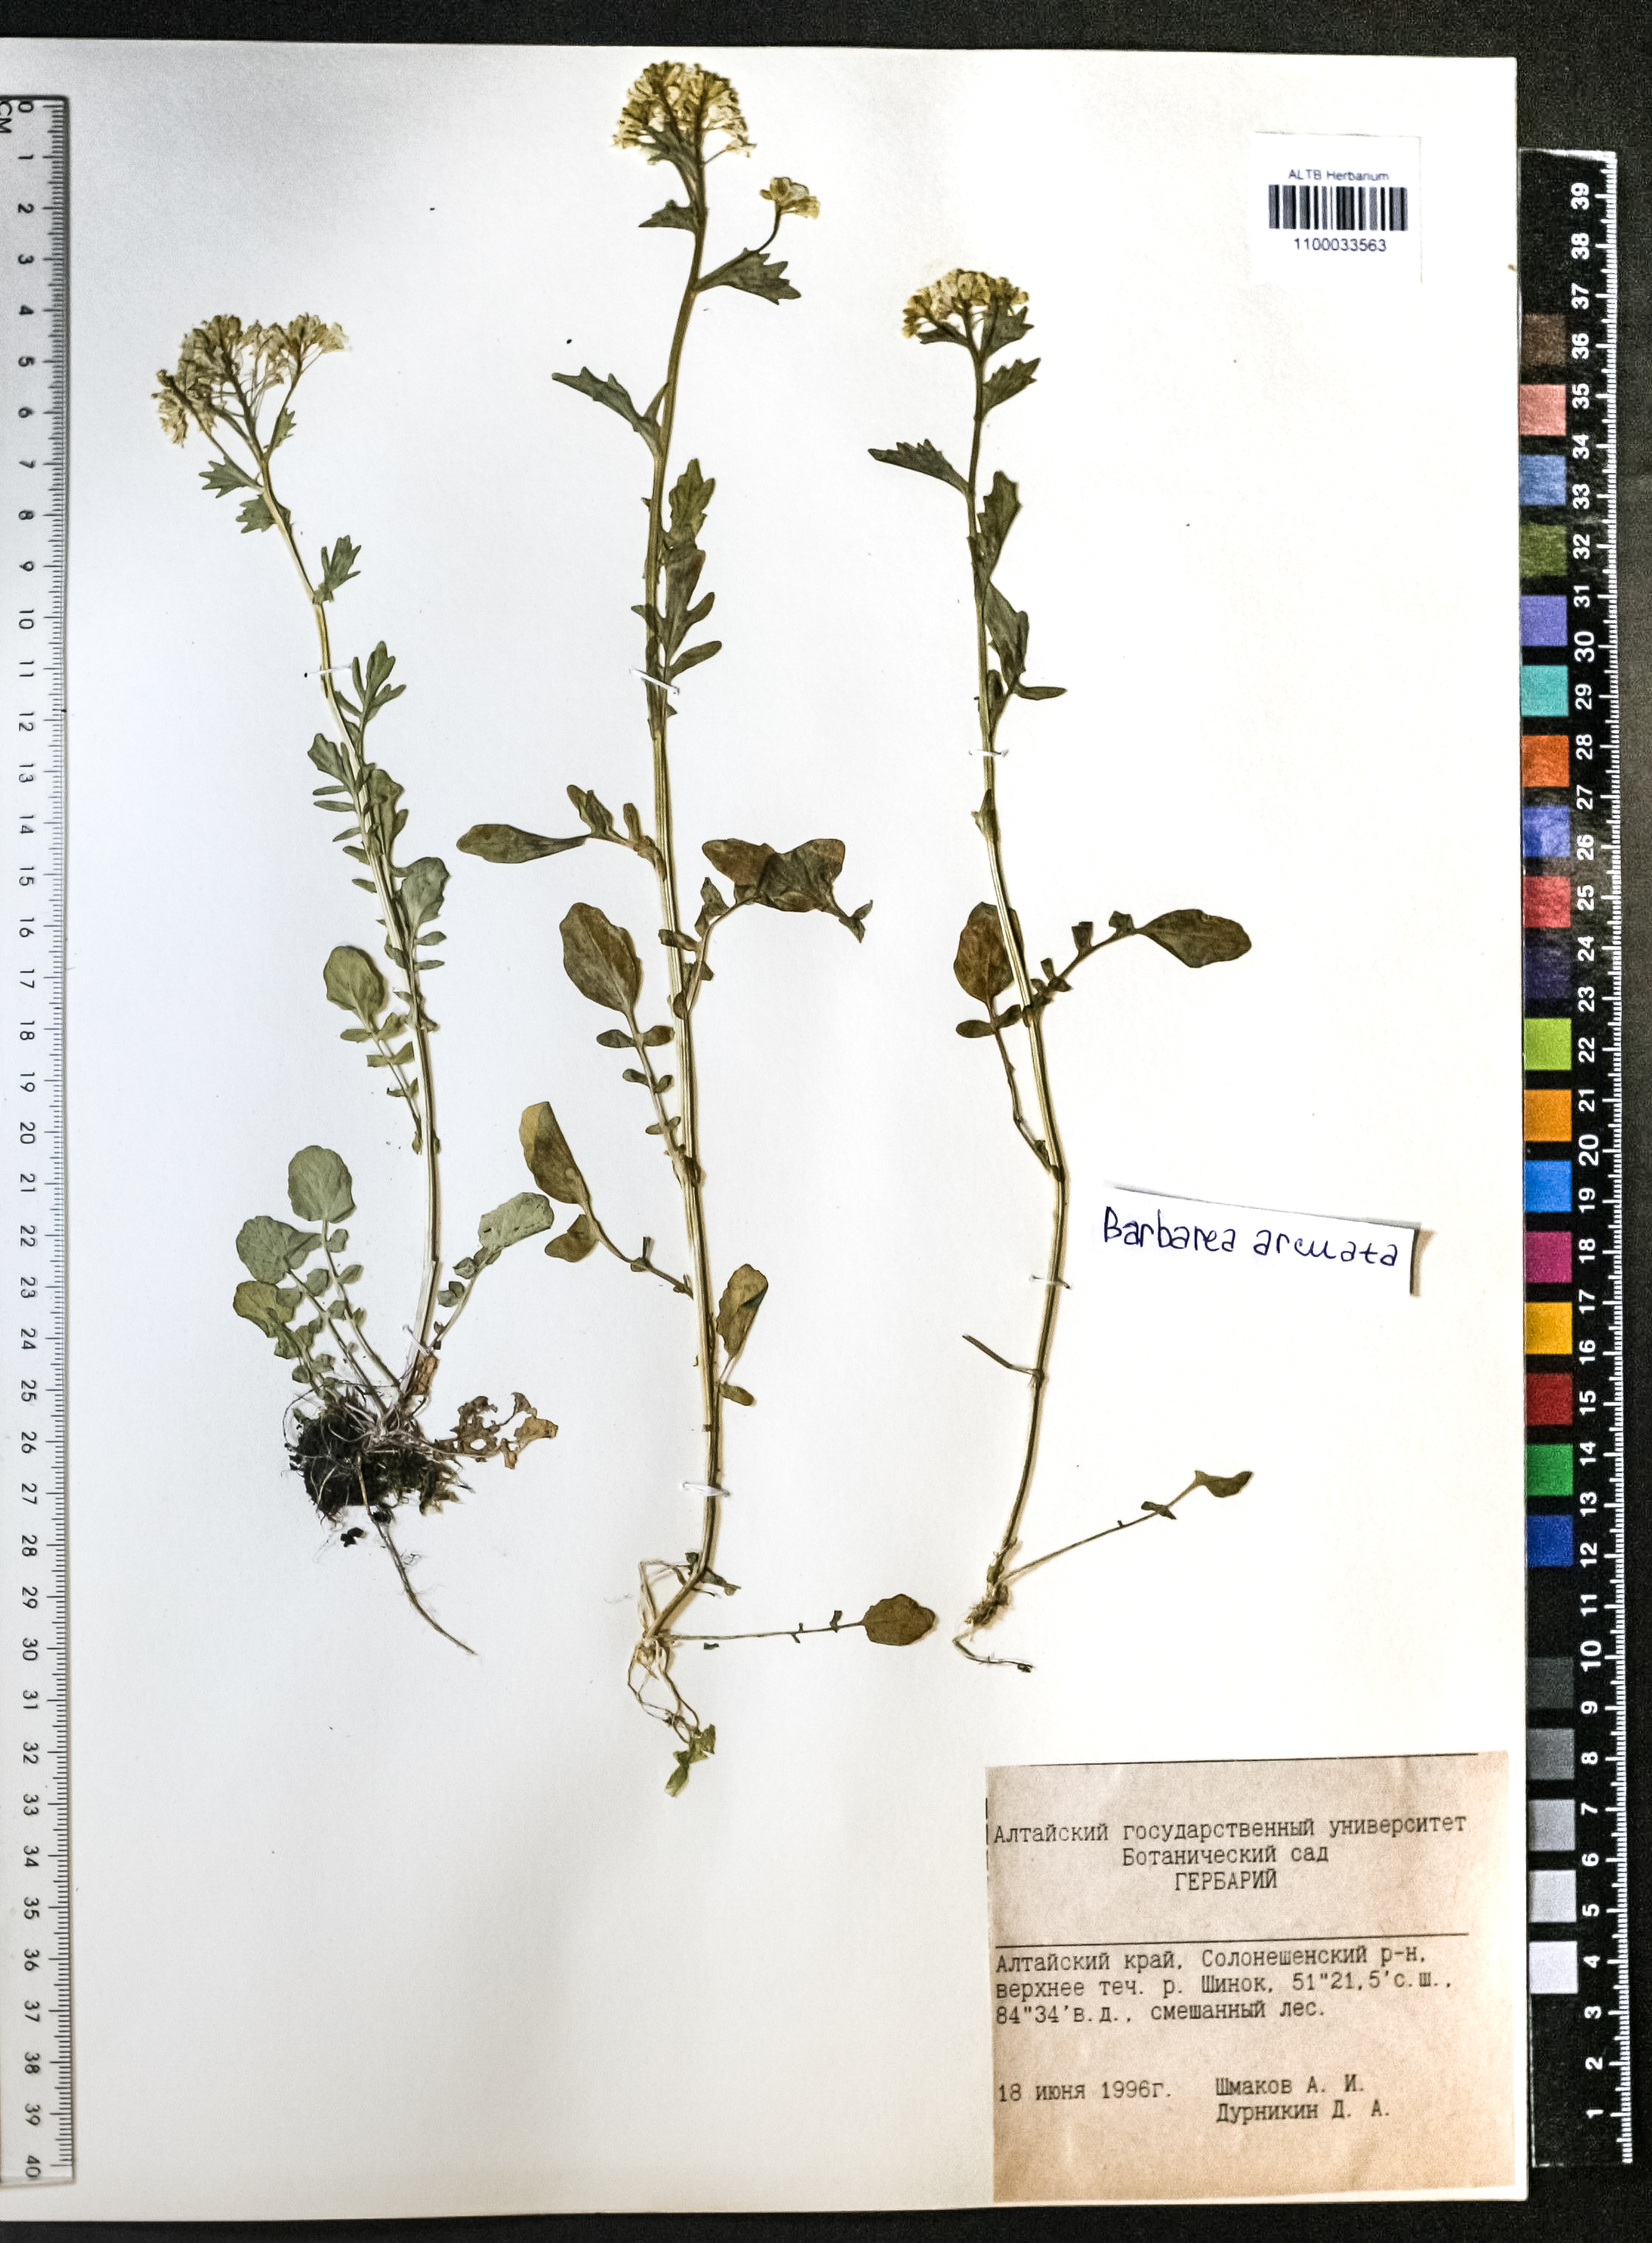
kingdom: Plantae
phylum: Tracheophyta
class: Magnoliopsida
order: Brassicales
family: Brassicaceae
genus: Barbarea
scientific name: Barbarea vulgaris
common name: Cressy-greens
